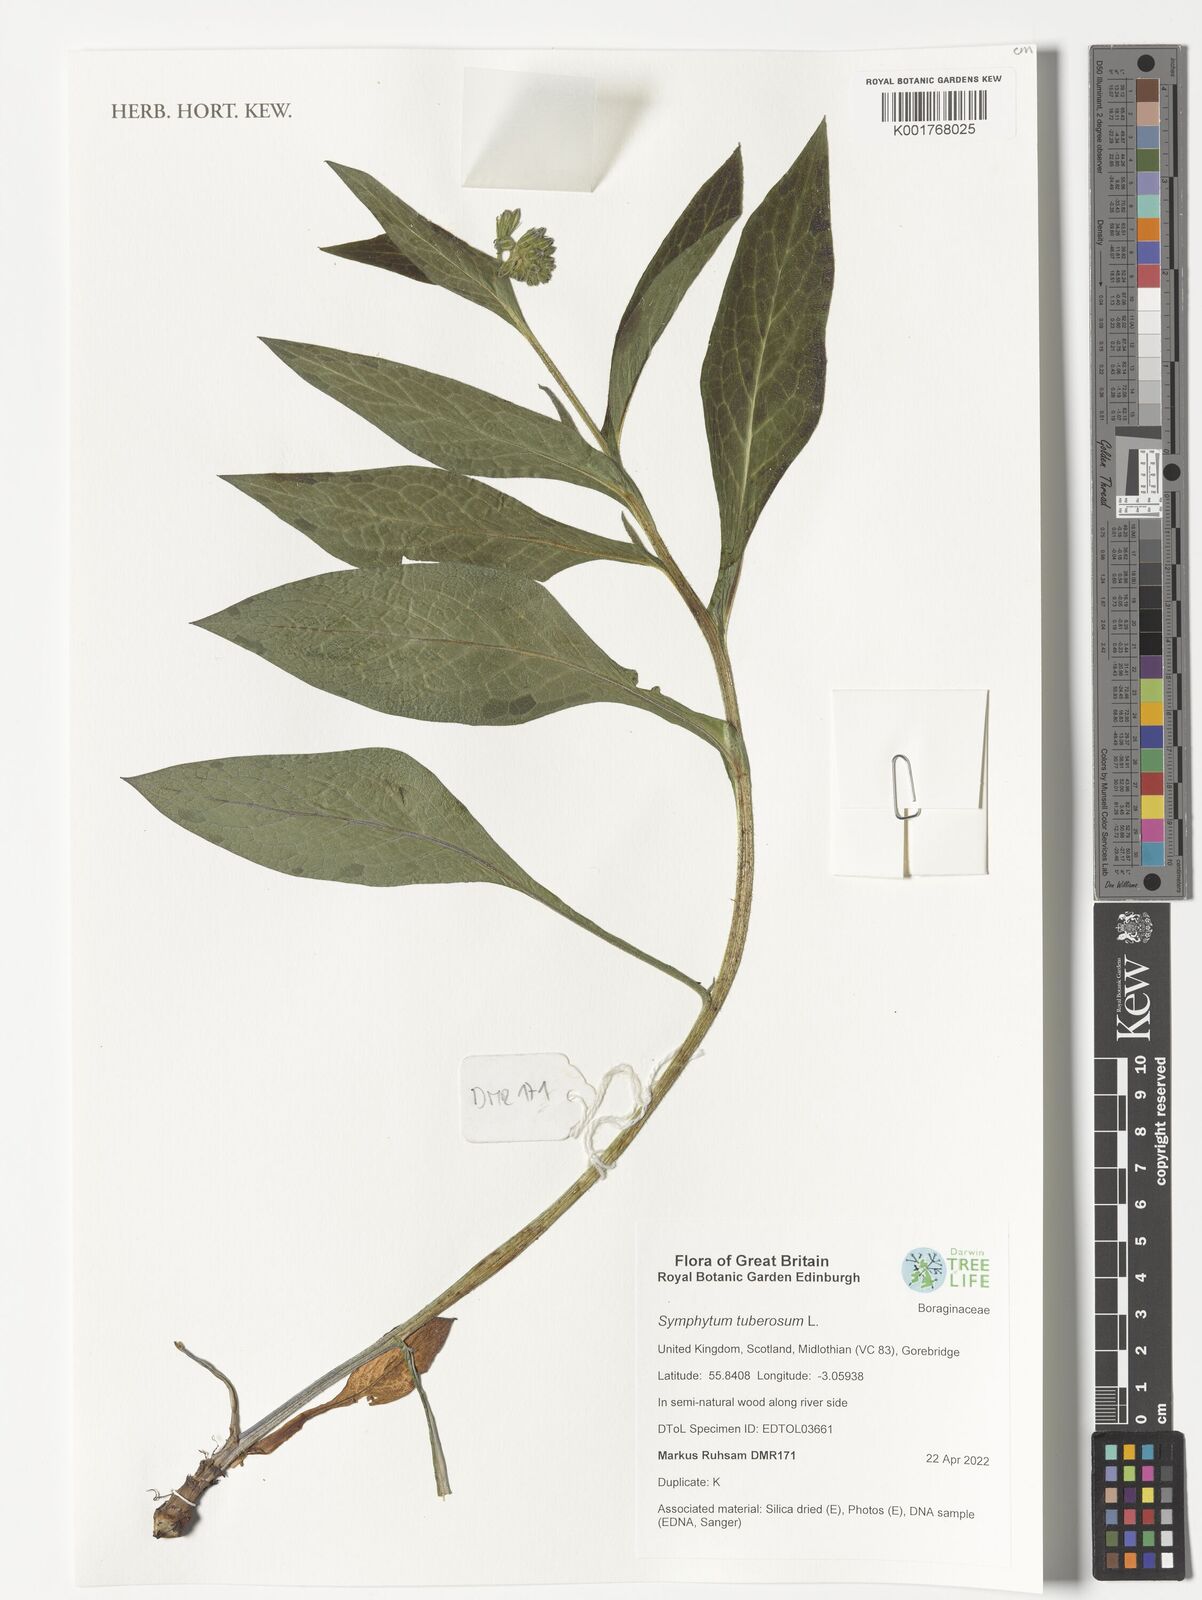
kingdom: Plantae
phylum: Tracheophyta
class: Magnoliopsida
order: Boraginales
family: Boraginaceae
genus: Symphytum
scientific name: Symphytum tuberosum
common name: Tuberous comfrey
